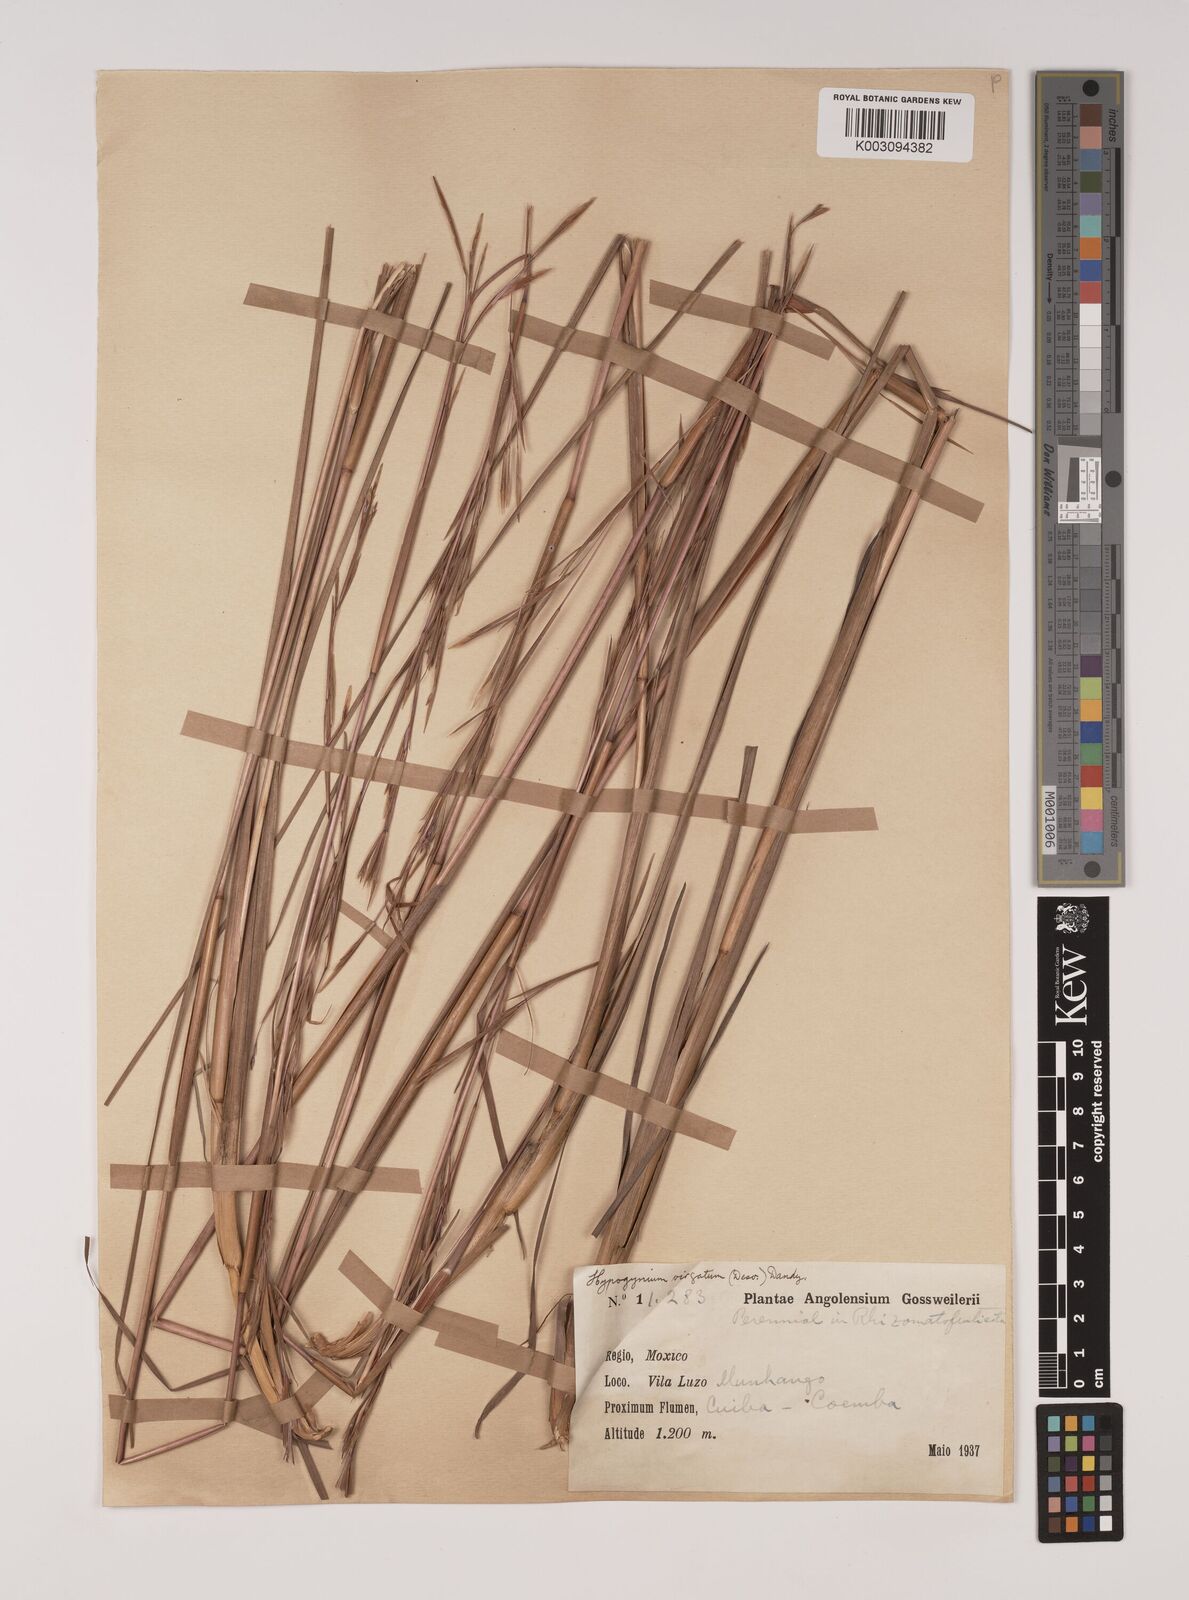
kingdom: Plantae
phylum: Tracheophyta
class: Liliopsida
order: Poales
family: Poaceae
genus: Andropogon
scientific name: Andropogon festuciformis
